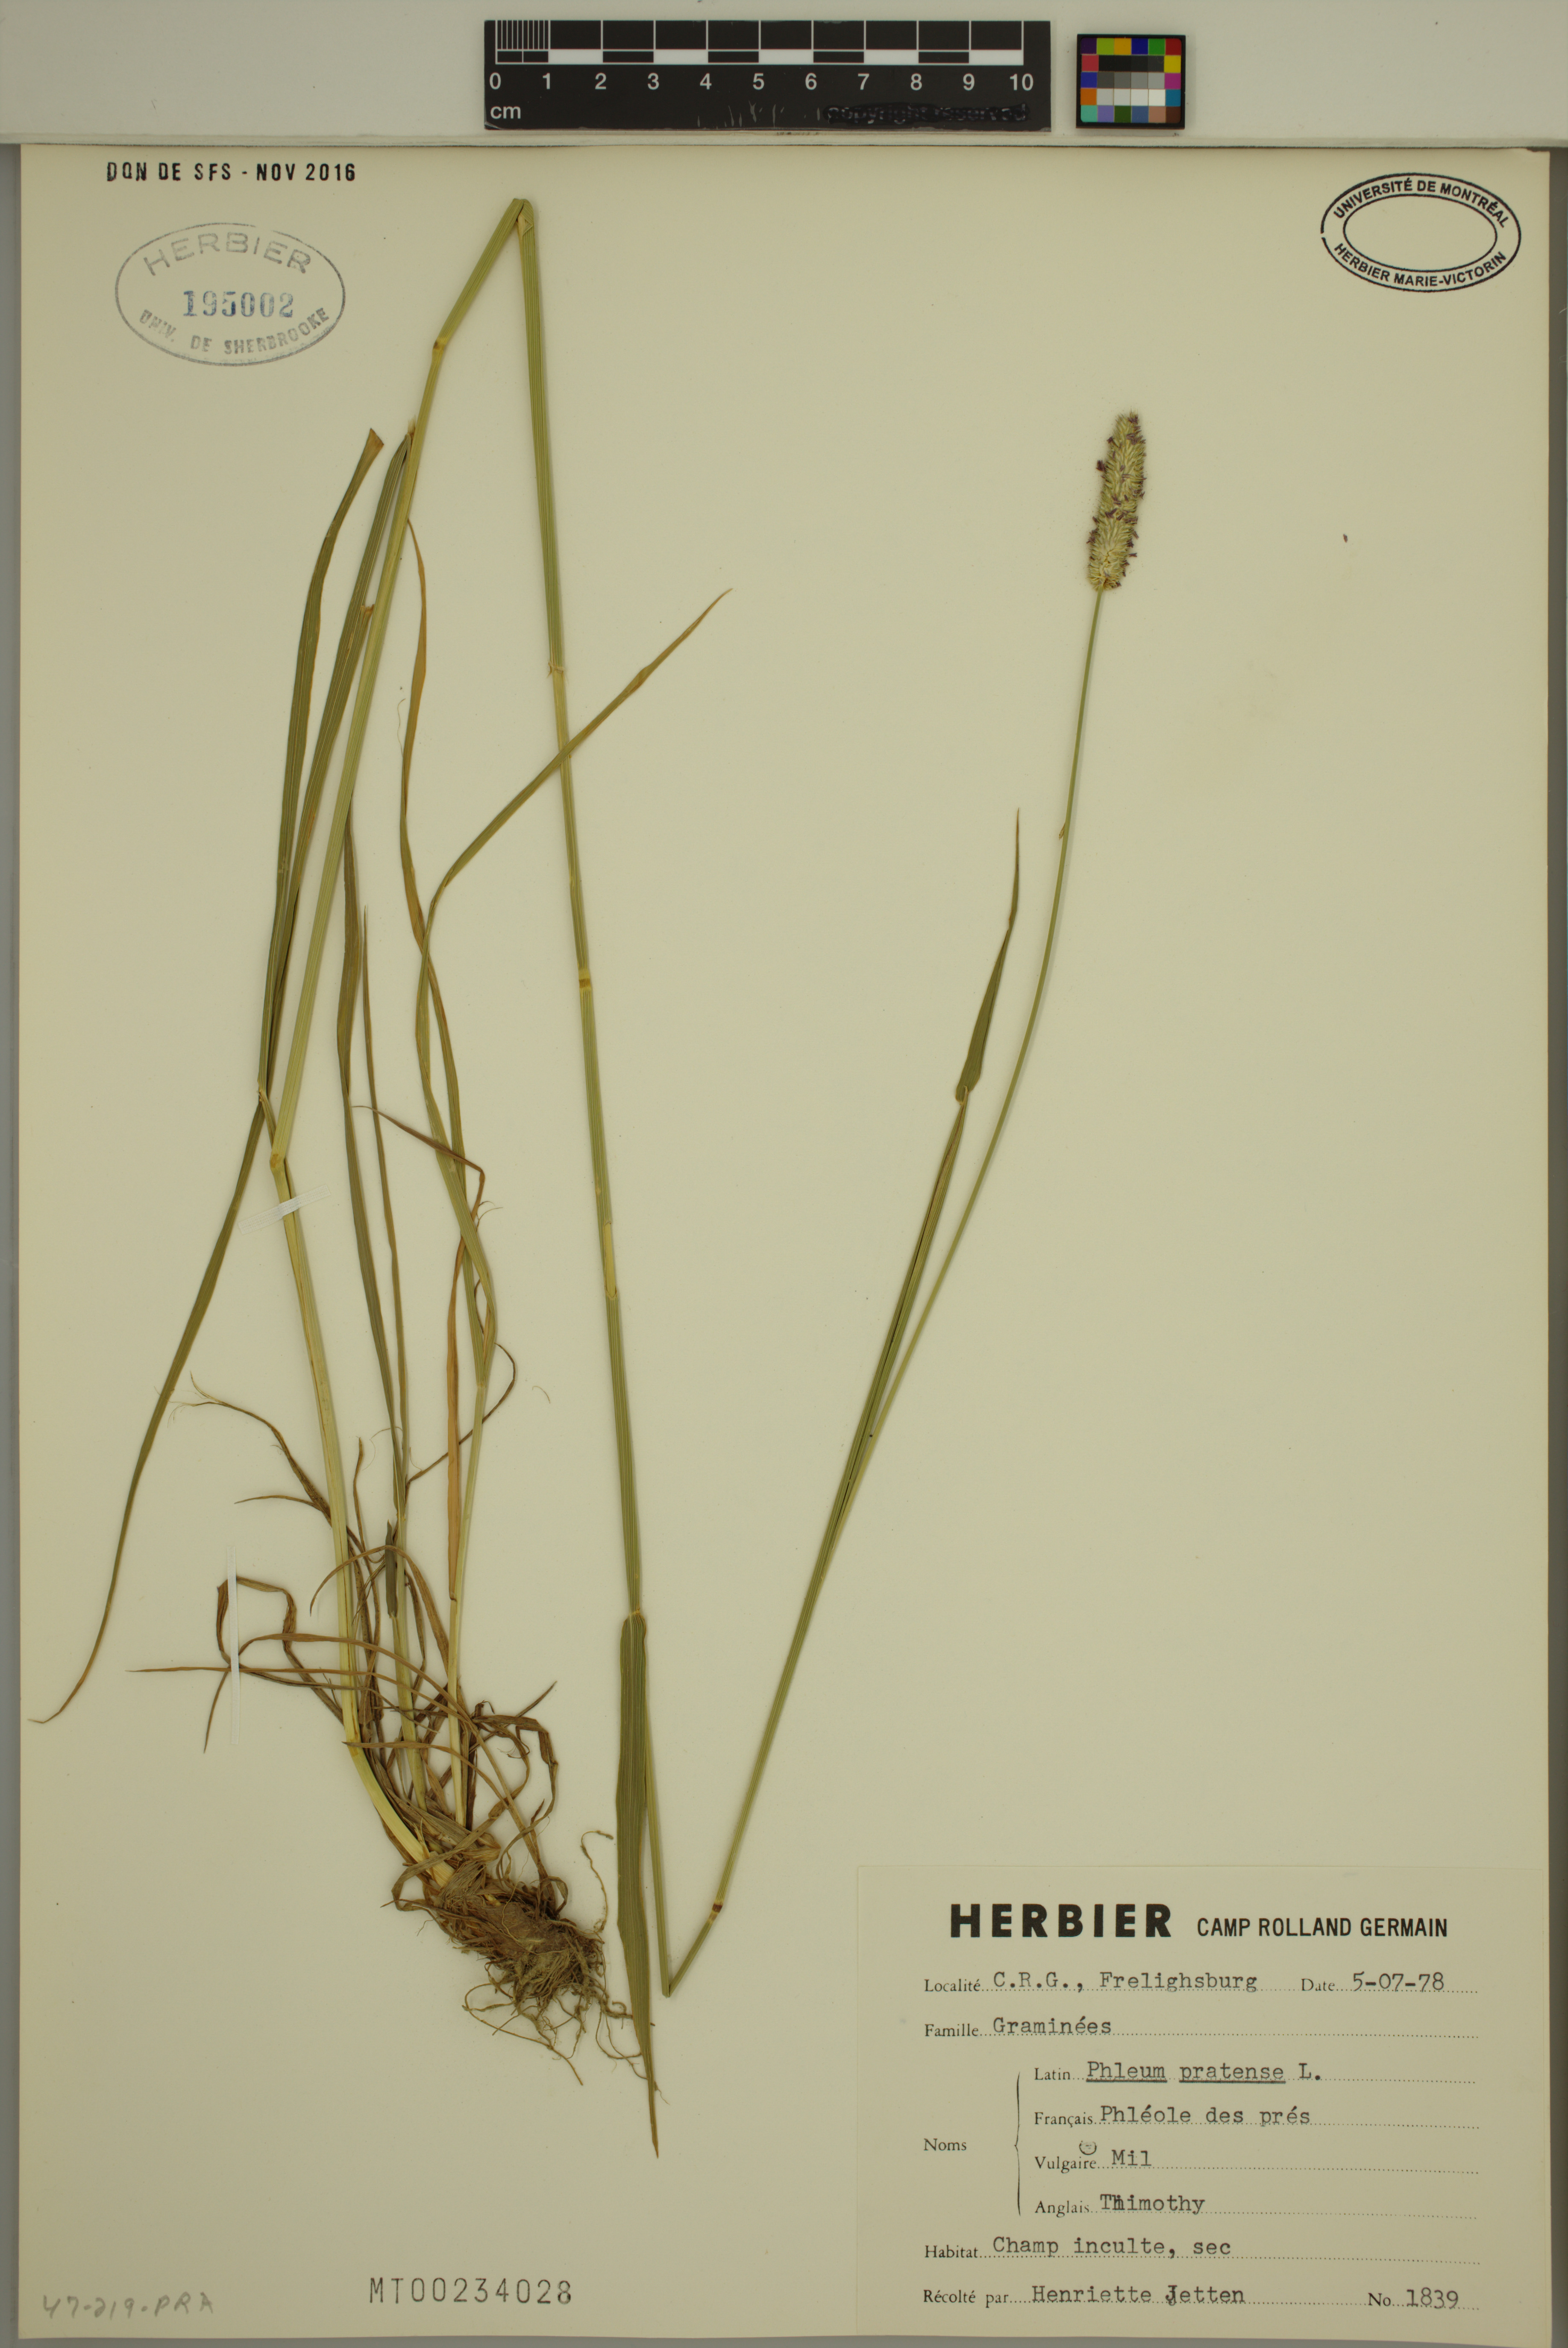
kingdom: Plantae
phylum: Tracheophyta
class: Liliopsida
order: Poales
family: Poaceae
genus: Phleum
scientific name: Phleum pratense
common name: Timothy grass
